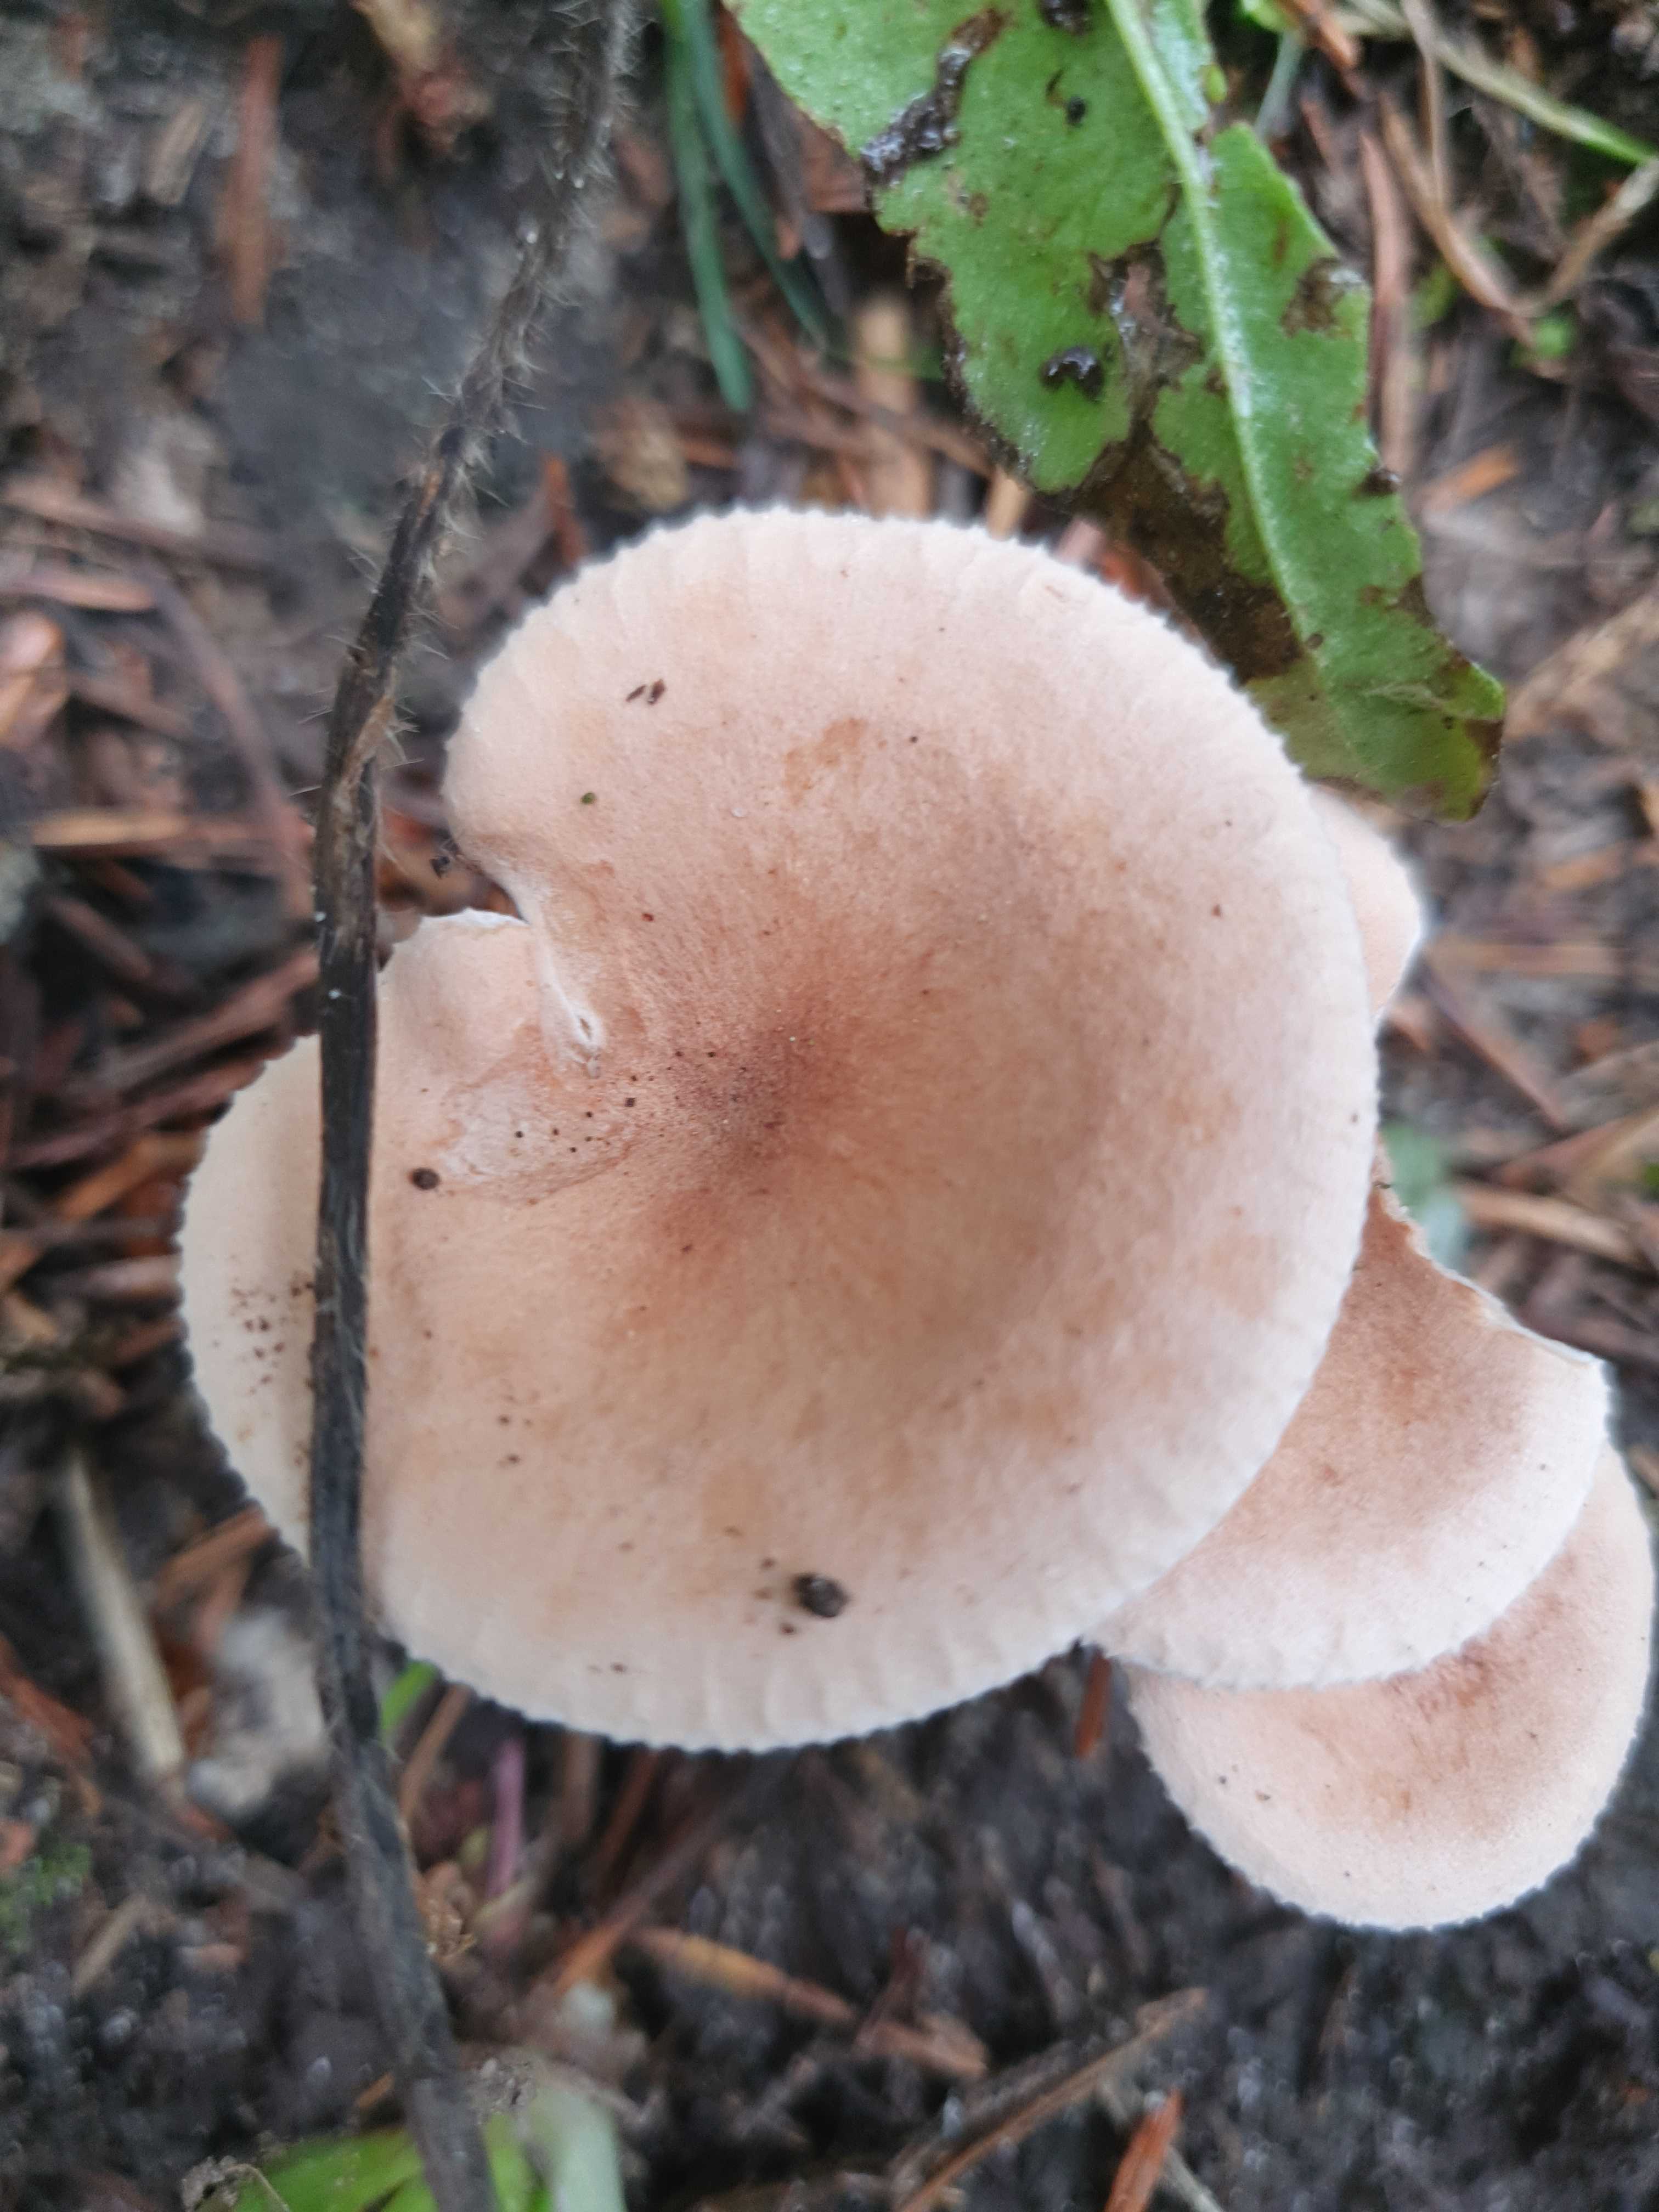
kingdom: Fungi
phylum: Basidiomycota
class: Agaricomycetes
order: Agaricales
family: Tricholomataceae
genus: Infundibulicybe
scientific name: Infundibulicybe gibba
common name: almindelig tragthat
